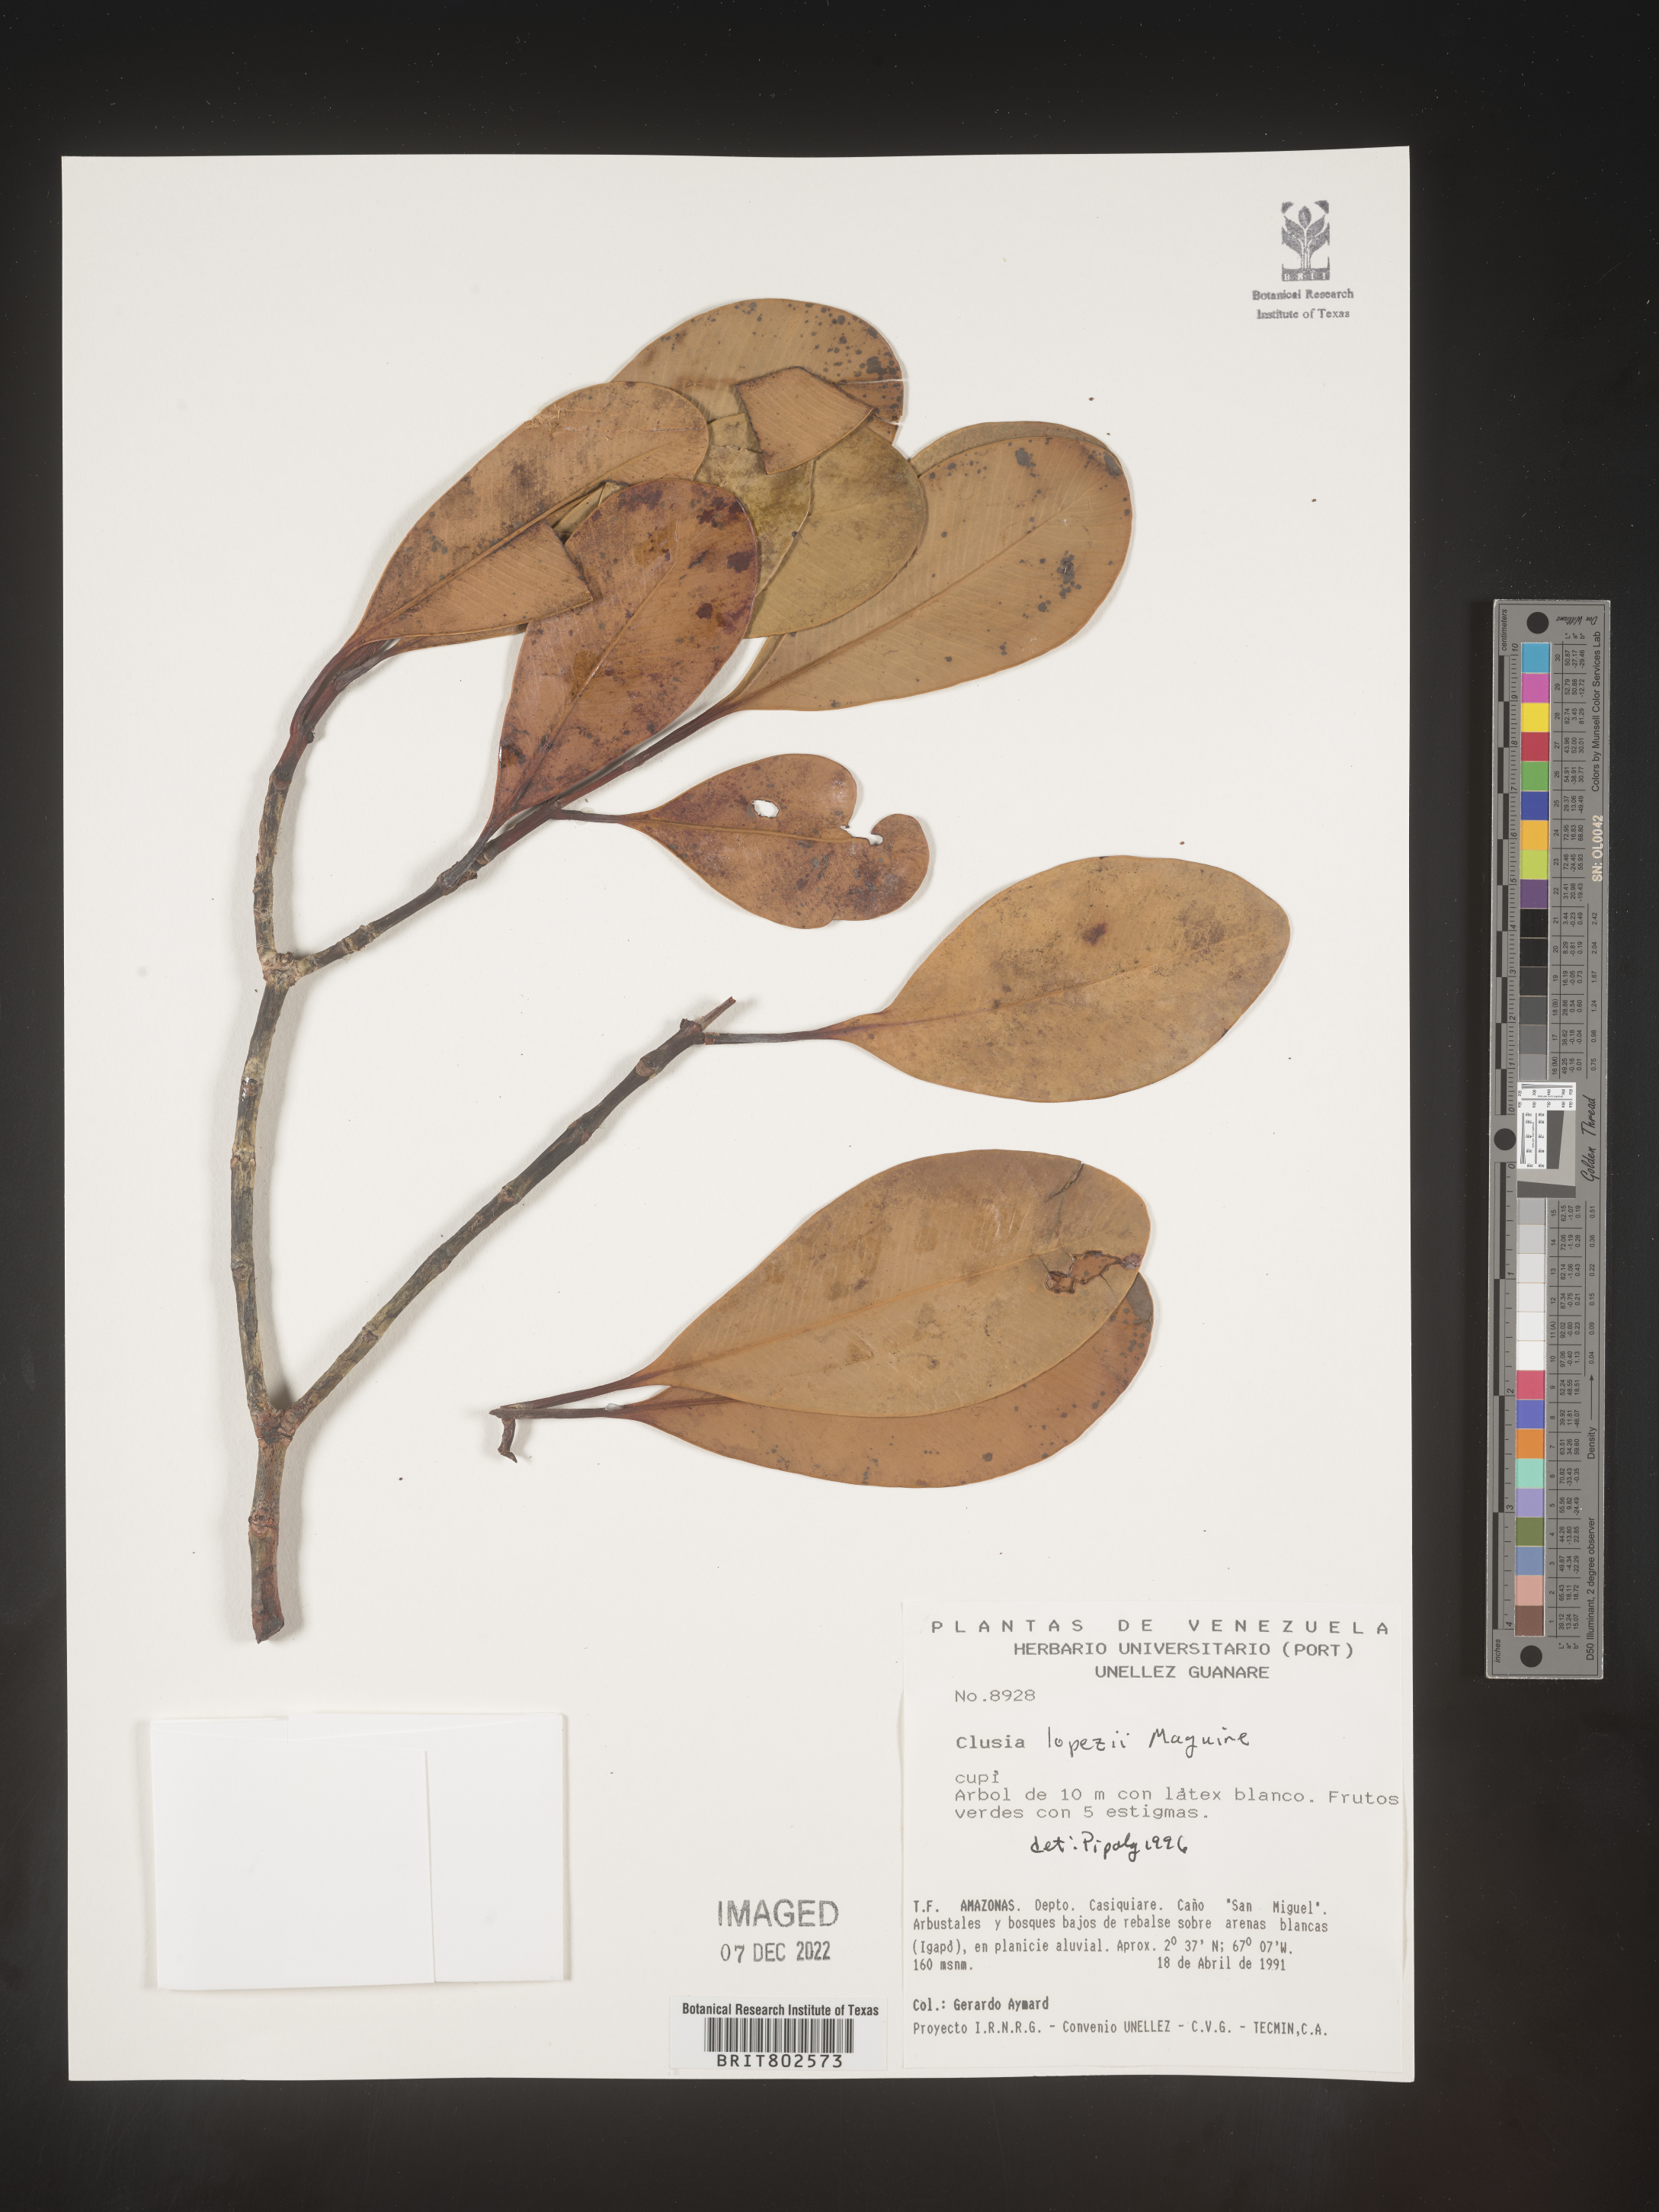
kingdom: Plantae
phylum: Tracheophyta
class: Magnoliopsida
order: Malpighiales
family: Clusiaceae
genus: Clusia
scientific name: Clusia lopezii
